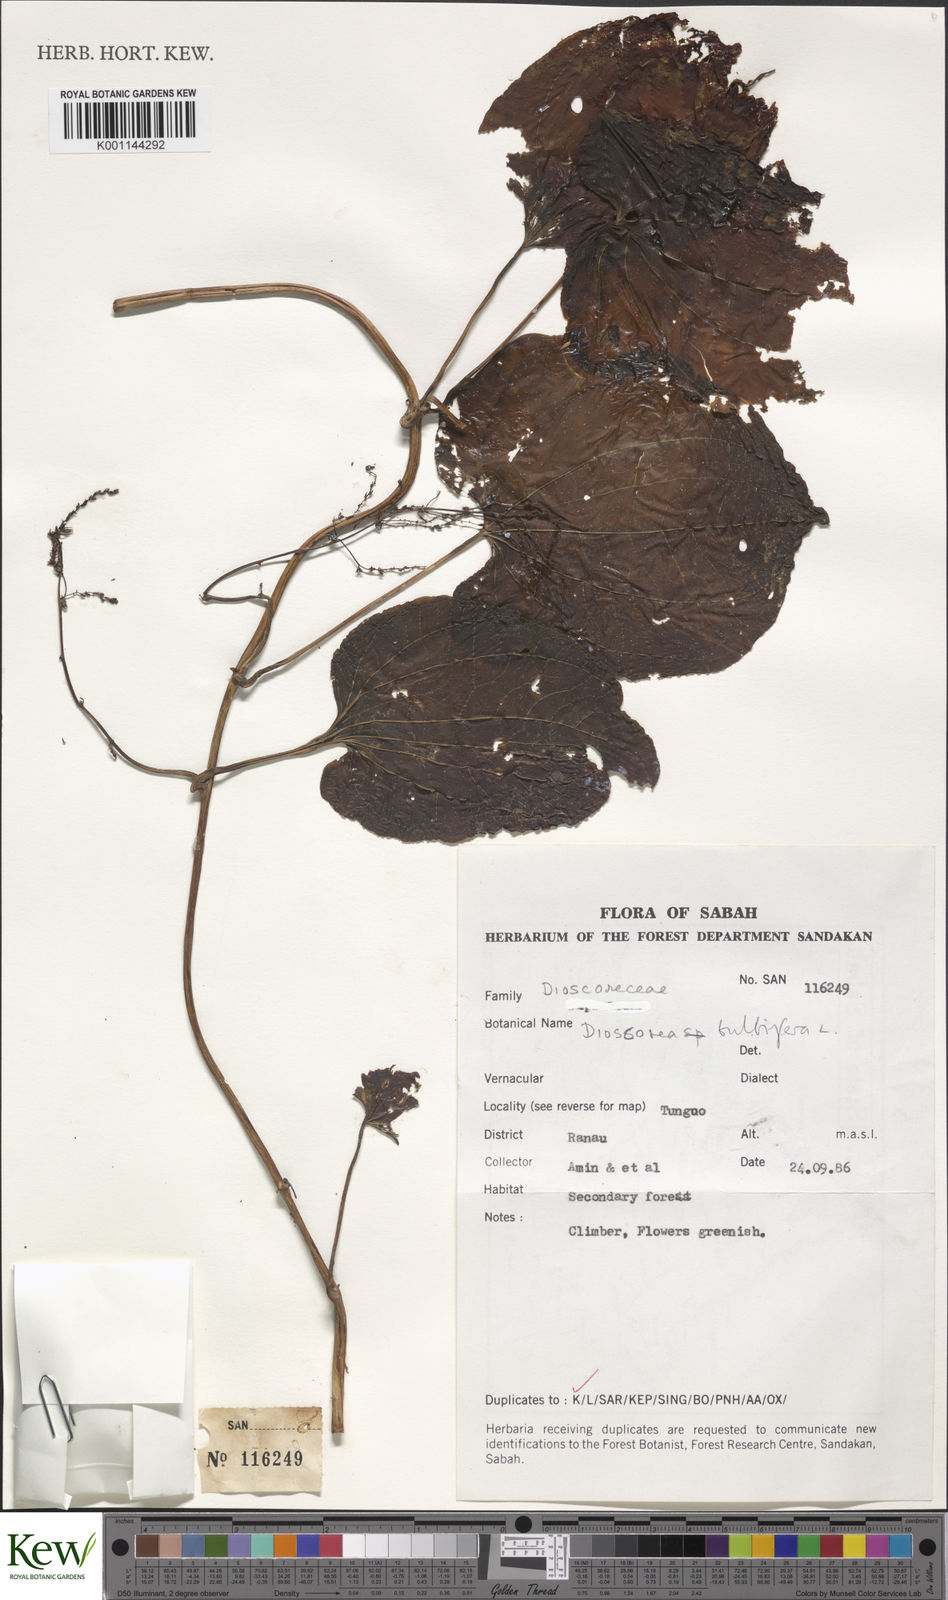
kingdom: Plantae
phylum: Tracheophyta
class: Liliopsida
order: Dioscoreales
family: Dioscoreaceae
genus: Dioscorea
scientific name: Dioscorea bulbifera
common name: Air yam
